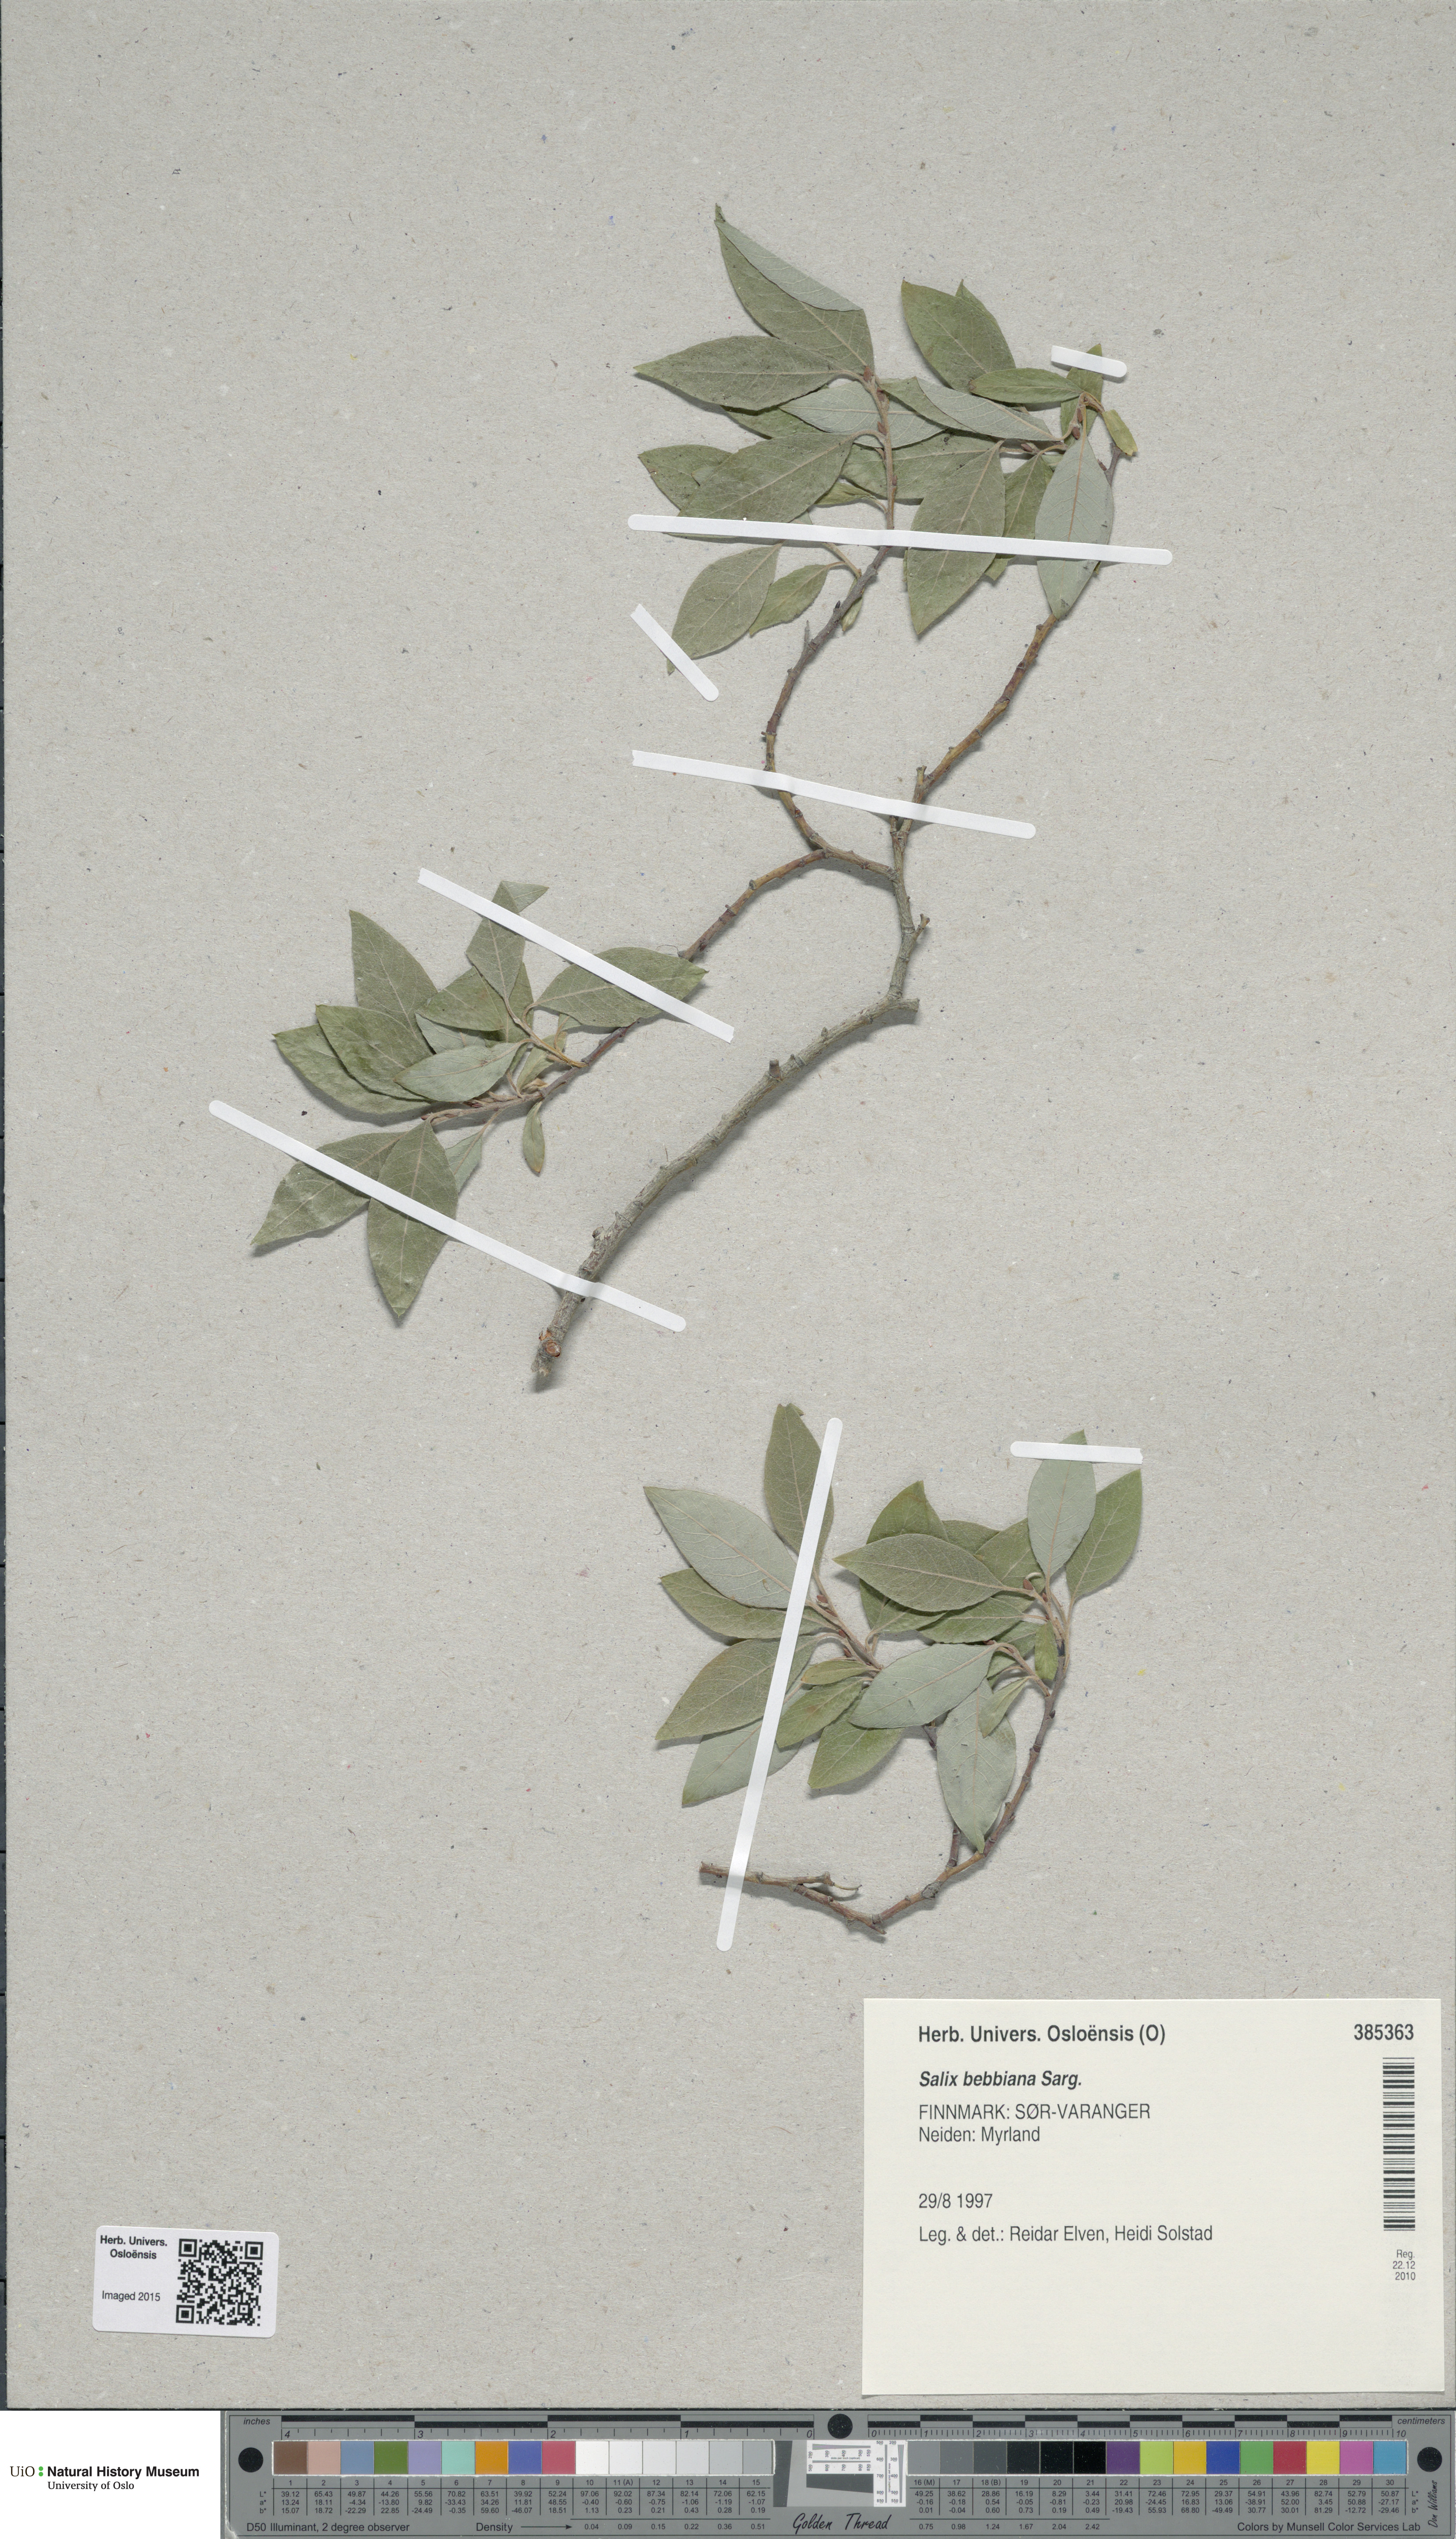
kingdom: Plantae
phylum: Tracheophyta
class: Magnoliopsida
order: Malpighiales
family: Salicaceae
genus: Salix
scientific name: Salix bebbiana
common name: Bebb's willow
